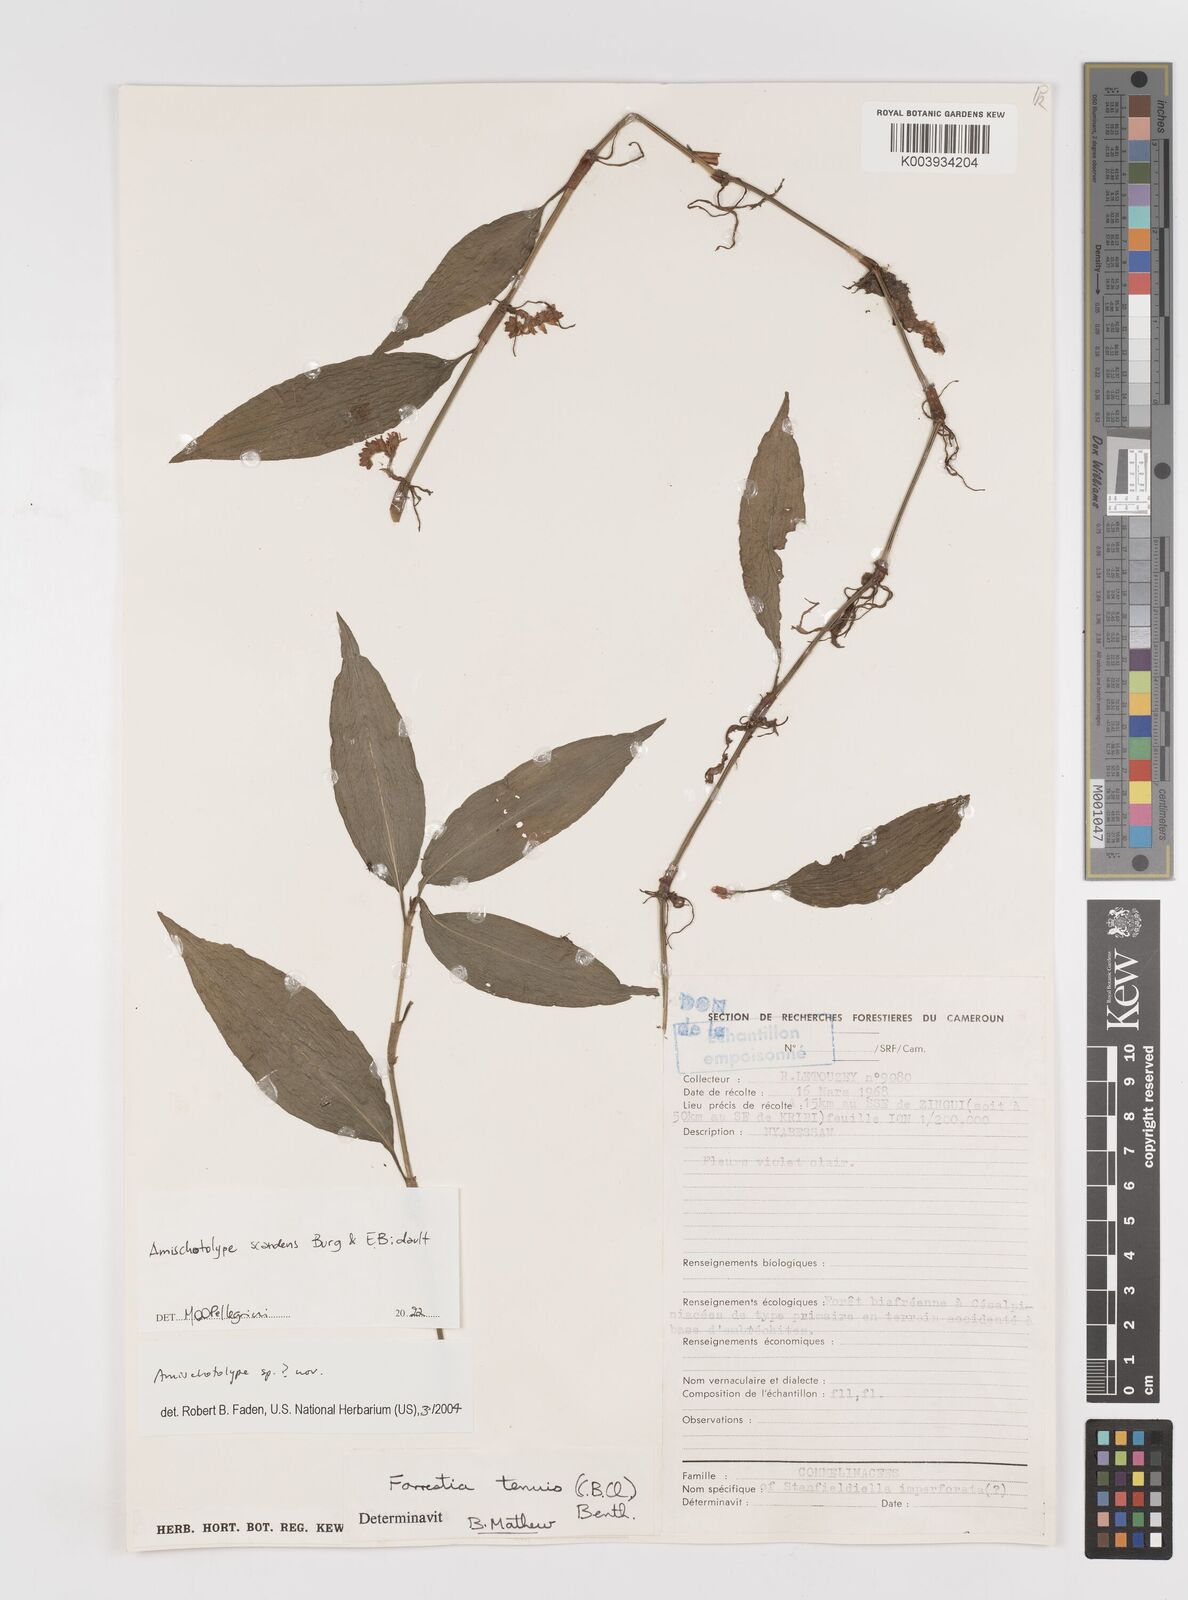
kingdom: Plantae
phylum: Tracheophyta
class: Liliopsida
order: Commelinales
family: Commelinaceae
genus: Amischotolype
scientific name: Amischotolype
